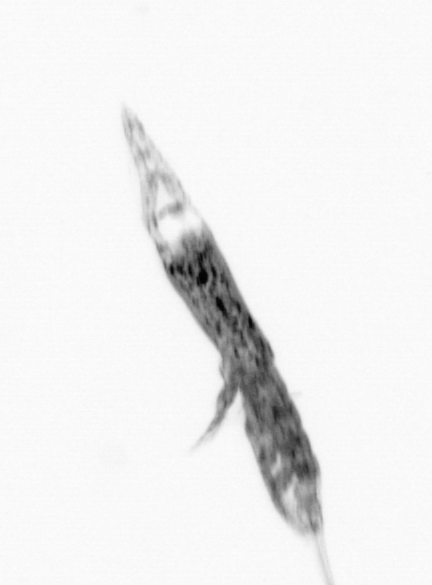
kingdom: Animalia
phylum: Arthropoda
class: Copepoda
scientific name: Copepoda
